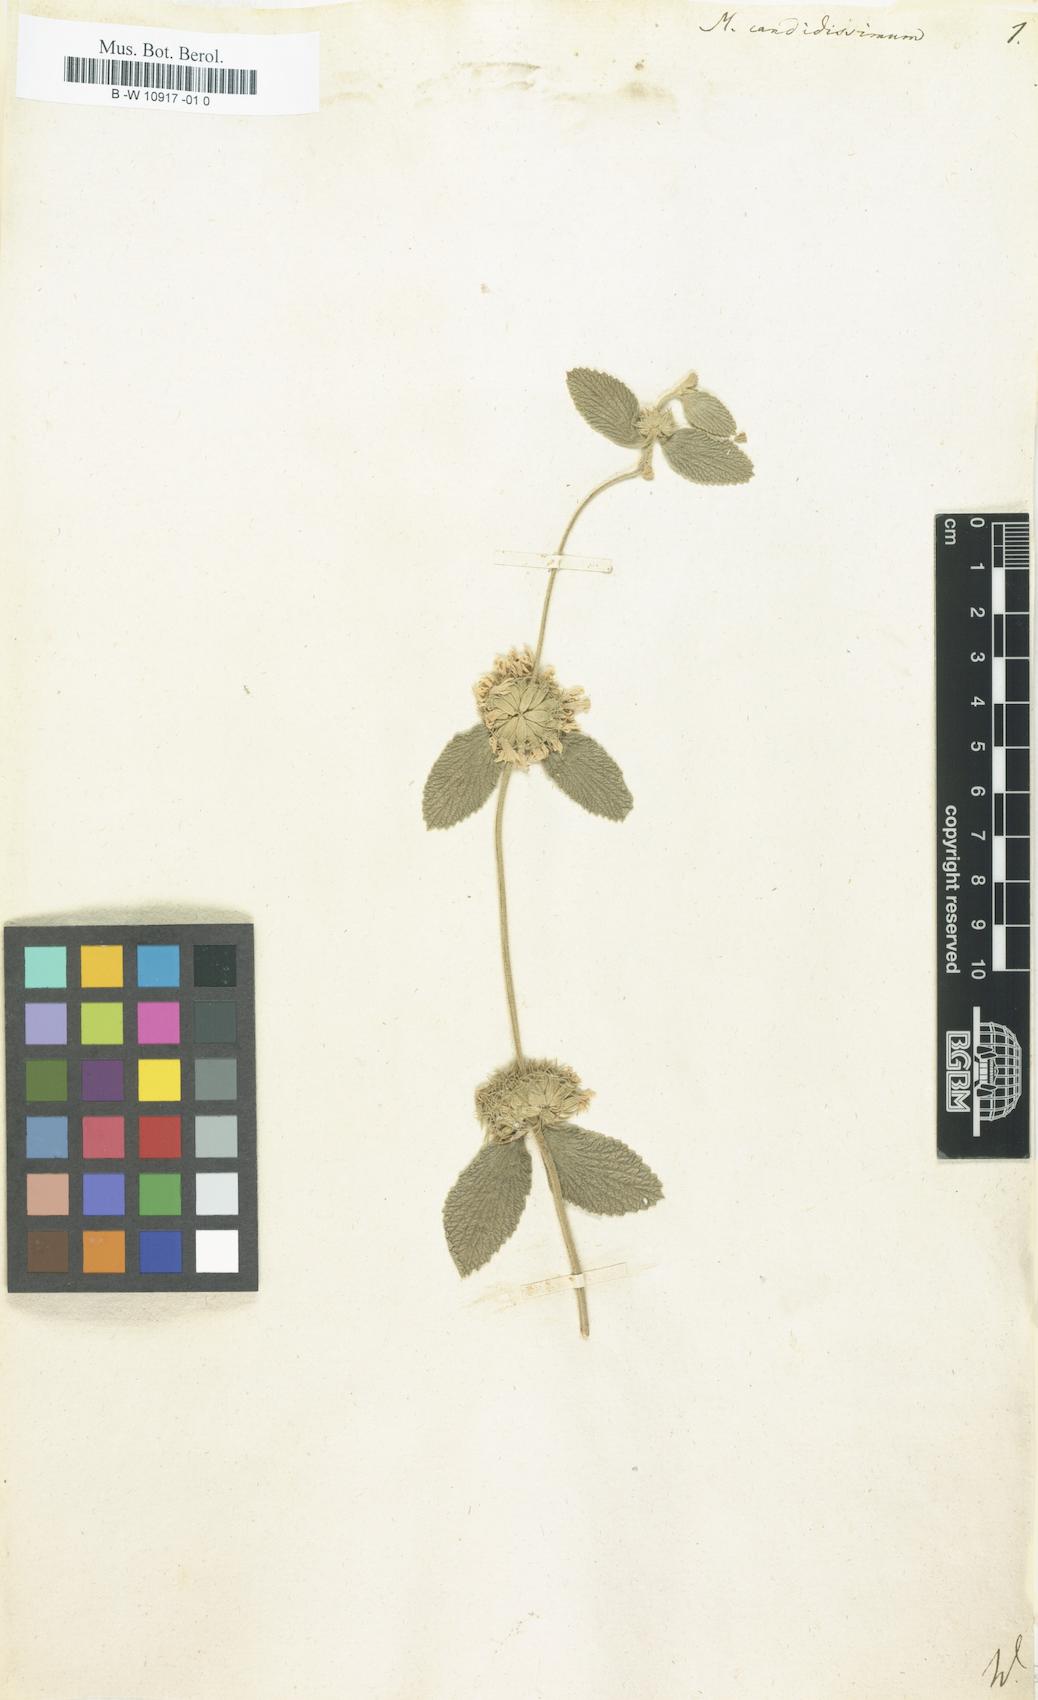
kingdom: Plantae
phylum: Tracheophyta
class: Magnoliopsida
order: Lamiales
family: Lamiaceae
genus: Marrubium
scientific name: Marrubium candidissimum
